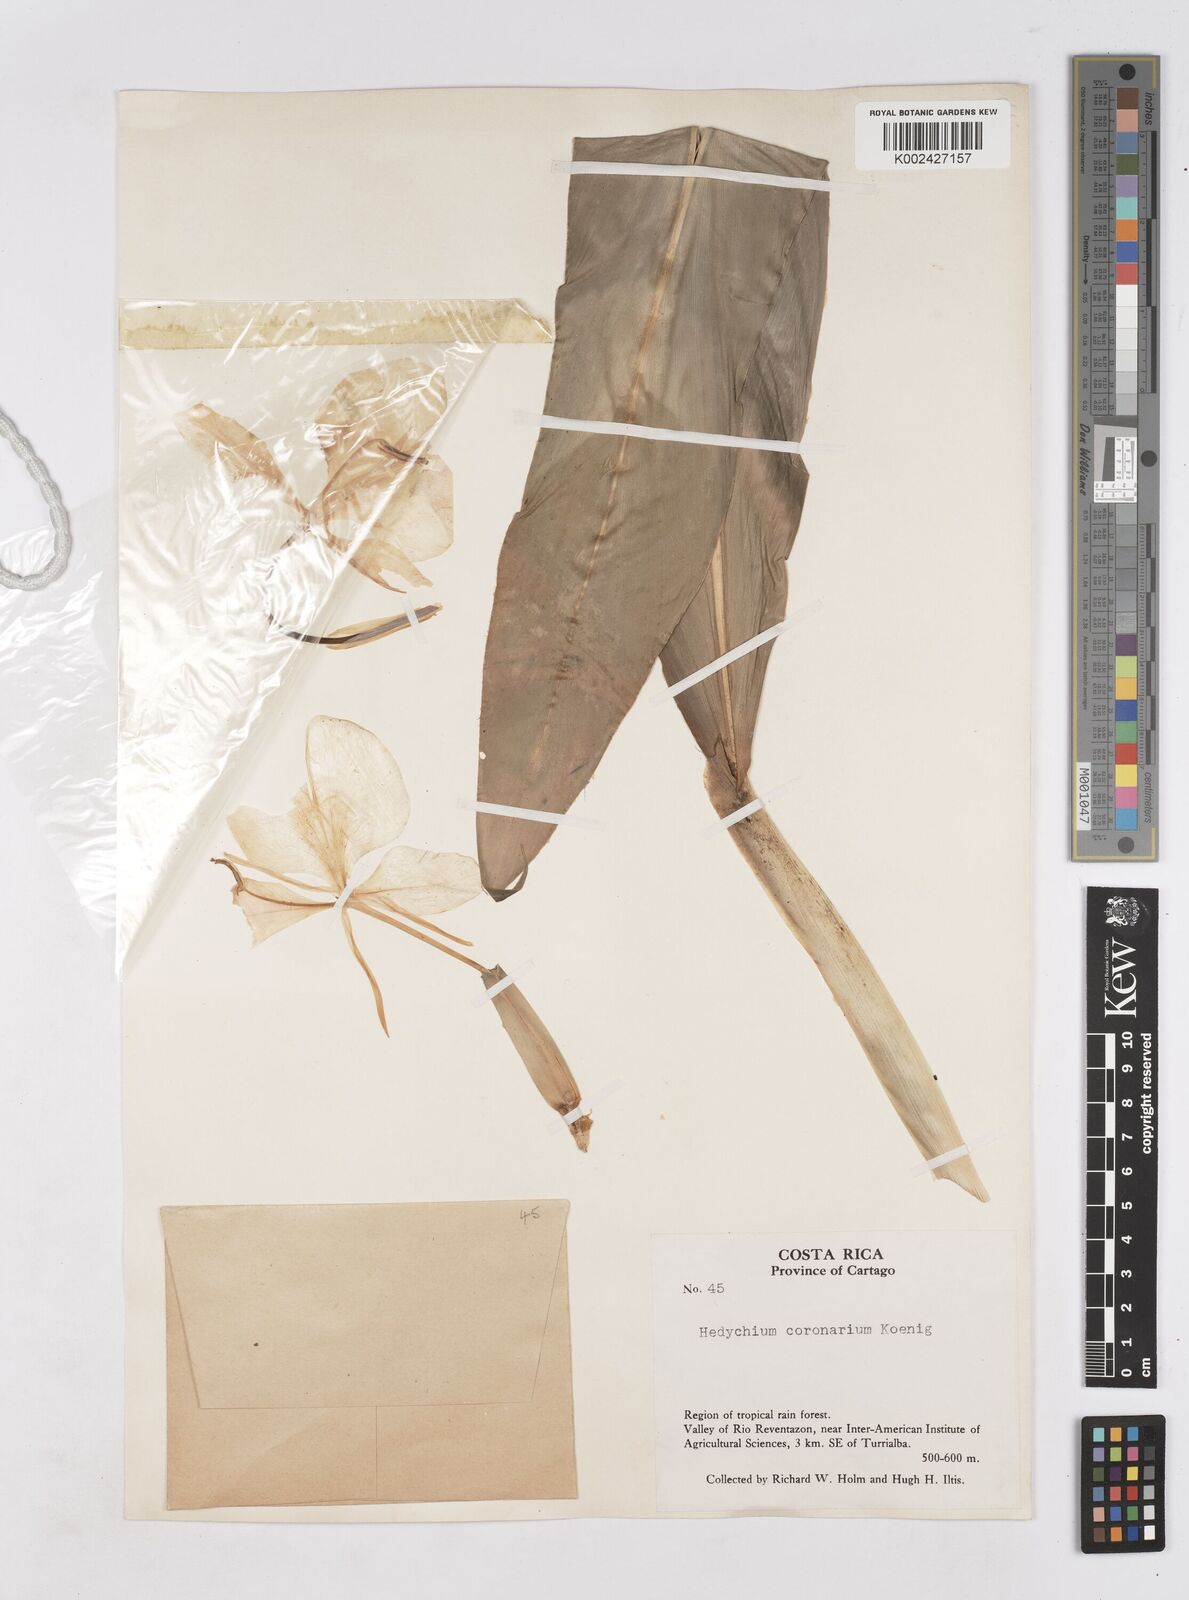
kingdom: Plantae
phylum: Tracheophyta
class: Liliopsida
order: Zingiberales
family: Zingiberaceae
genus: Hedychium
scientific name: Hedychium coronarium
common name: White garland-lily
